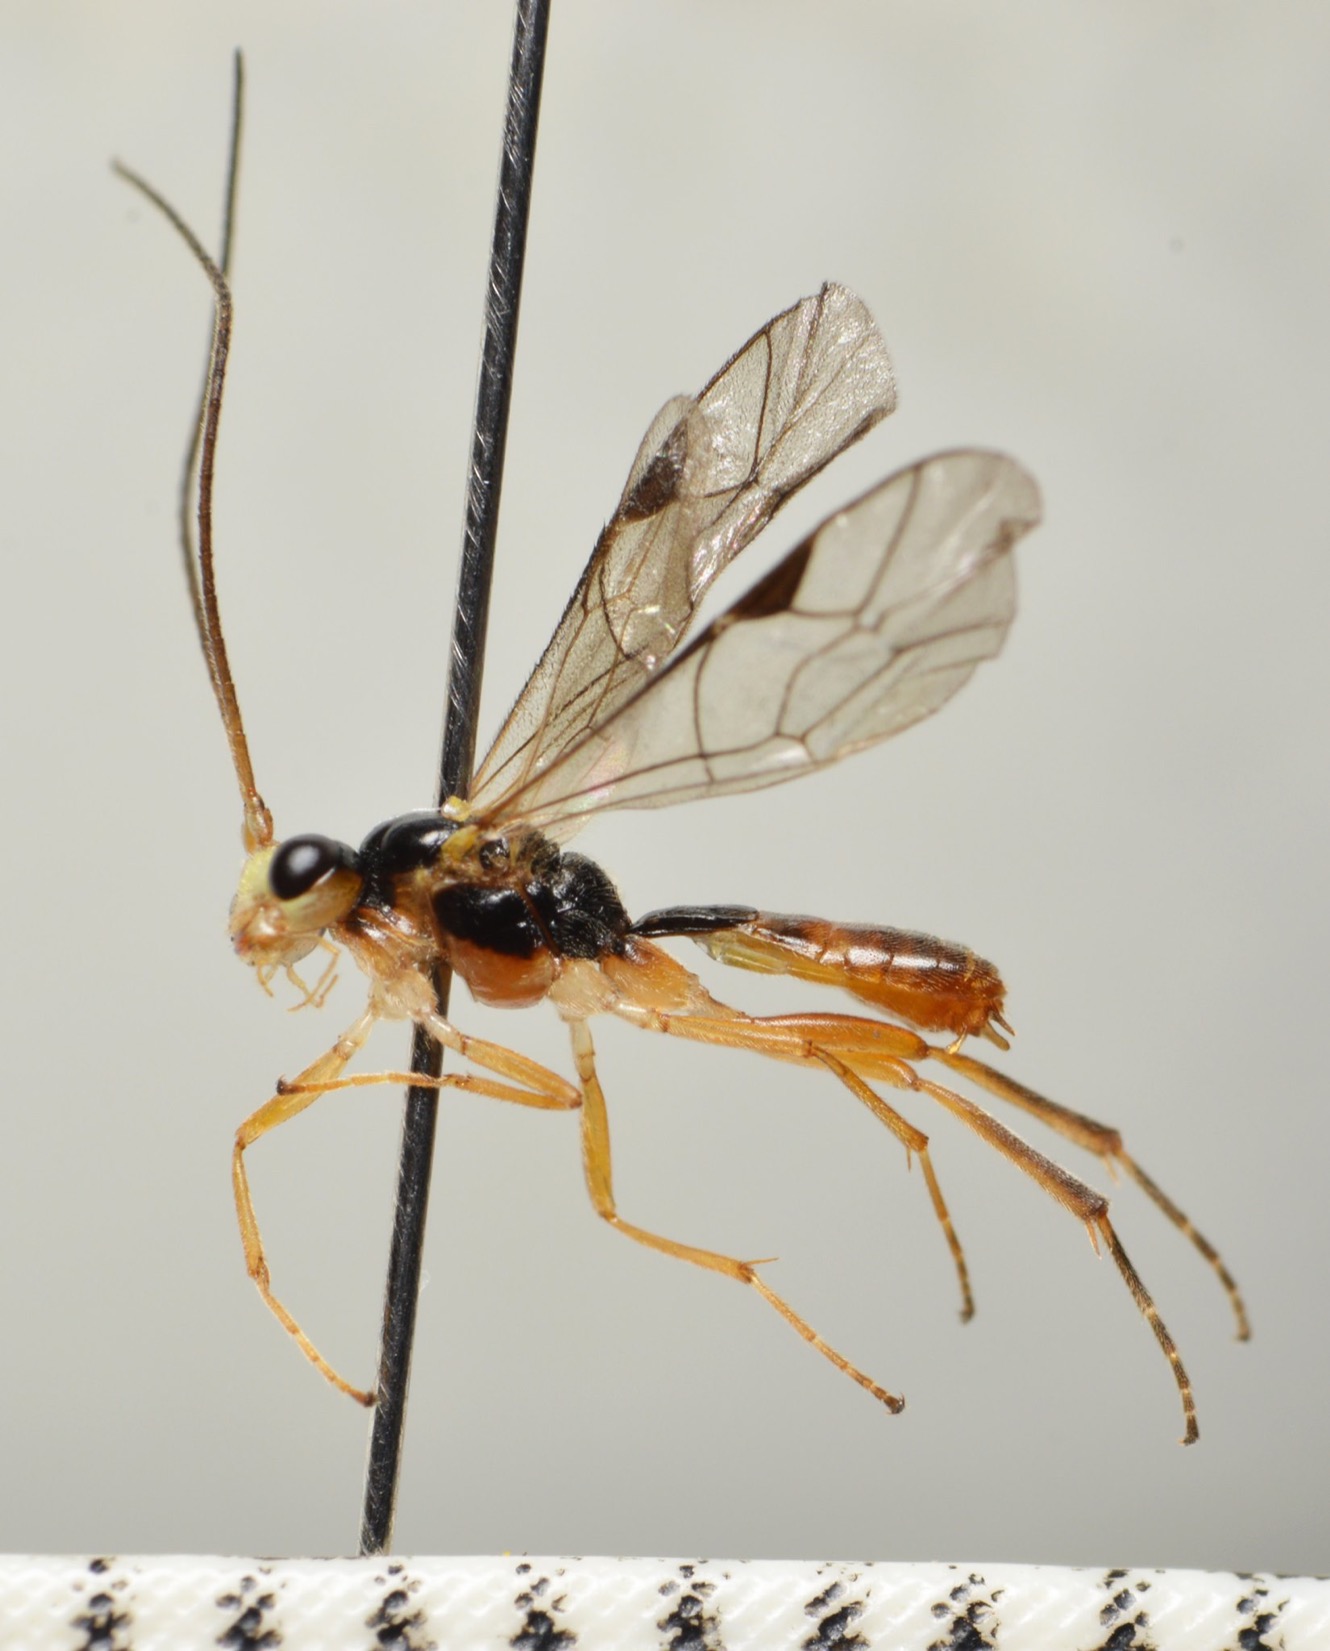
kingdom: Animalia
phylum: Arthropoda
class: Insecta
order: Hymenoptera
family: Ichneumonidae
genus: Lathrolestes
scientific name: Lathrolestes verticalis
